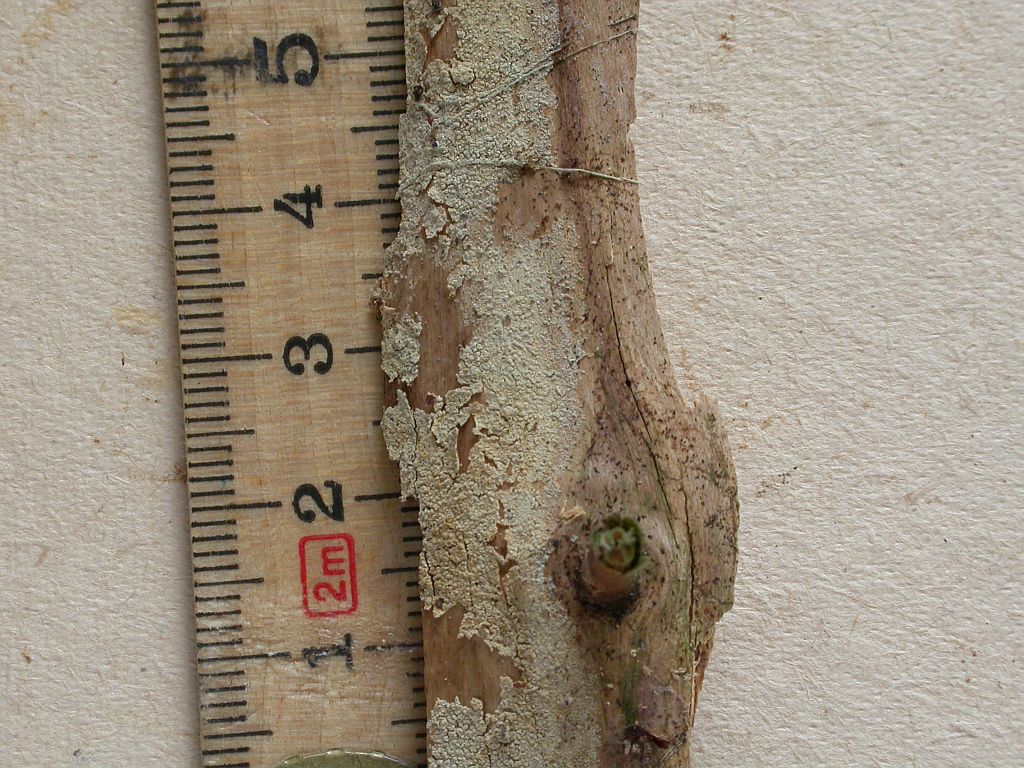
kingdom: Fungi
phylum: Basidiomycota
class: Agaricomycetes
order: Hymenochaetales
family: Hyphodontiaceae
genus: Hyphodontia
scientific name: Hyphodontia pallidula
